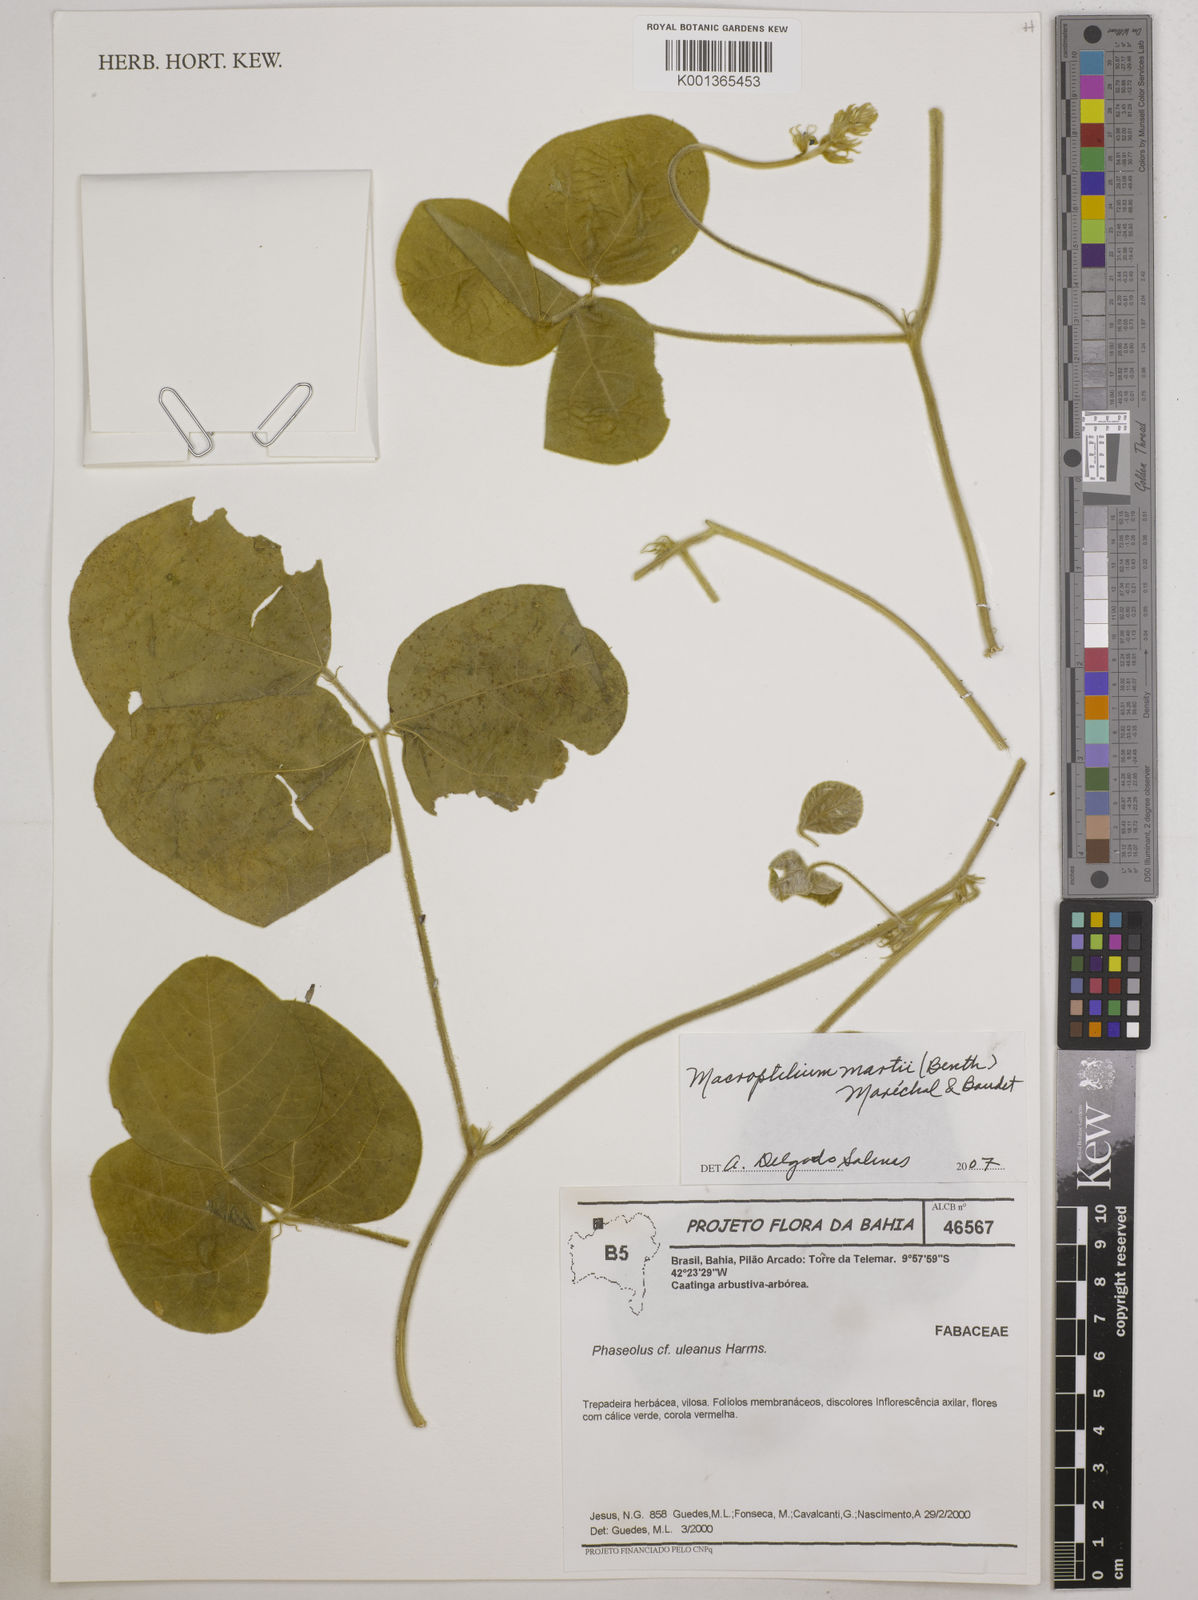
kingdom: Plantae
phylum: Tracheophyta
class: Magnoliopsida
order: Fabales
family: Fabaceae
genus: Macroptilium
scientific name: Macroptilium martii
